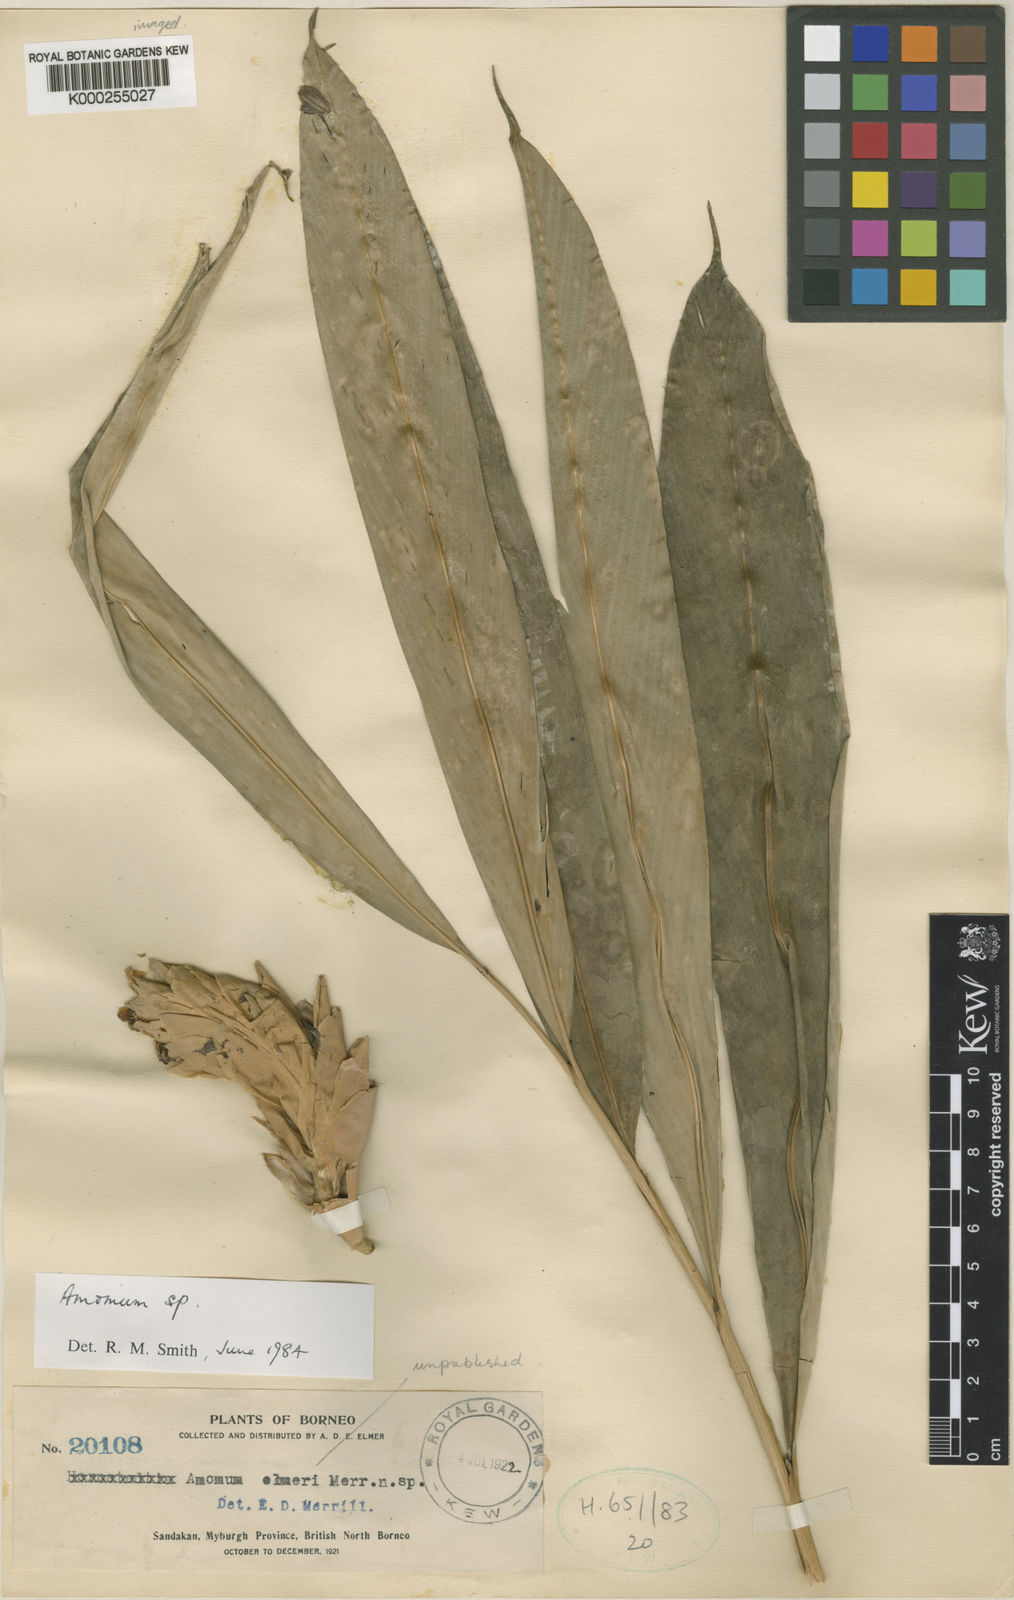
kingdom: Plantae
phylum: Tracheophyta
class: Liliopsida
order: Zingiberales
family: Zingiberaceae
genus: Amomum
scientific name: Amomum
